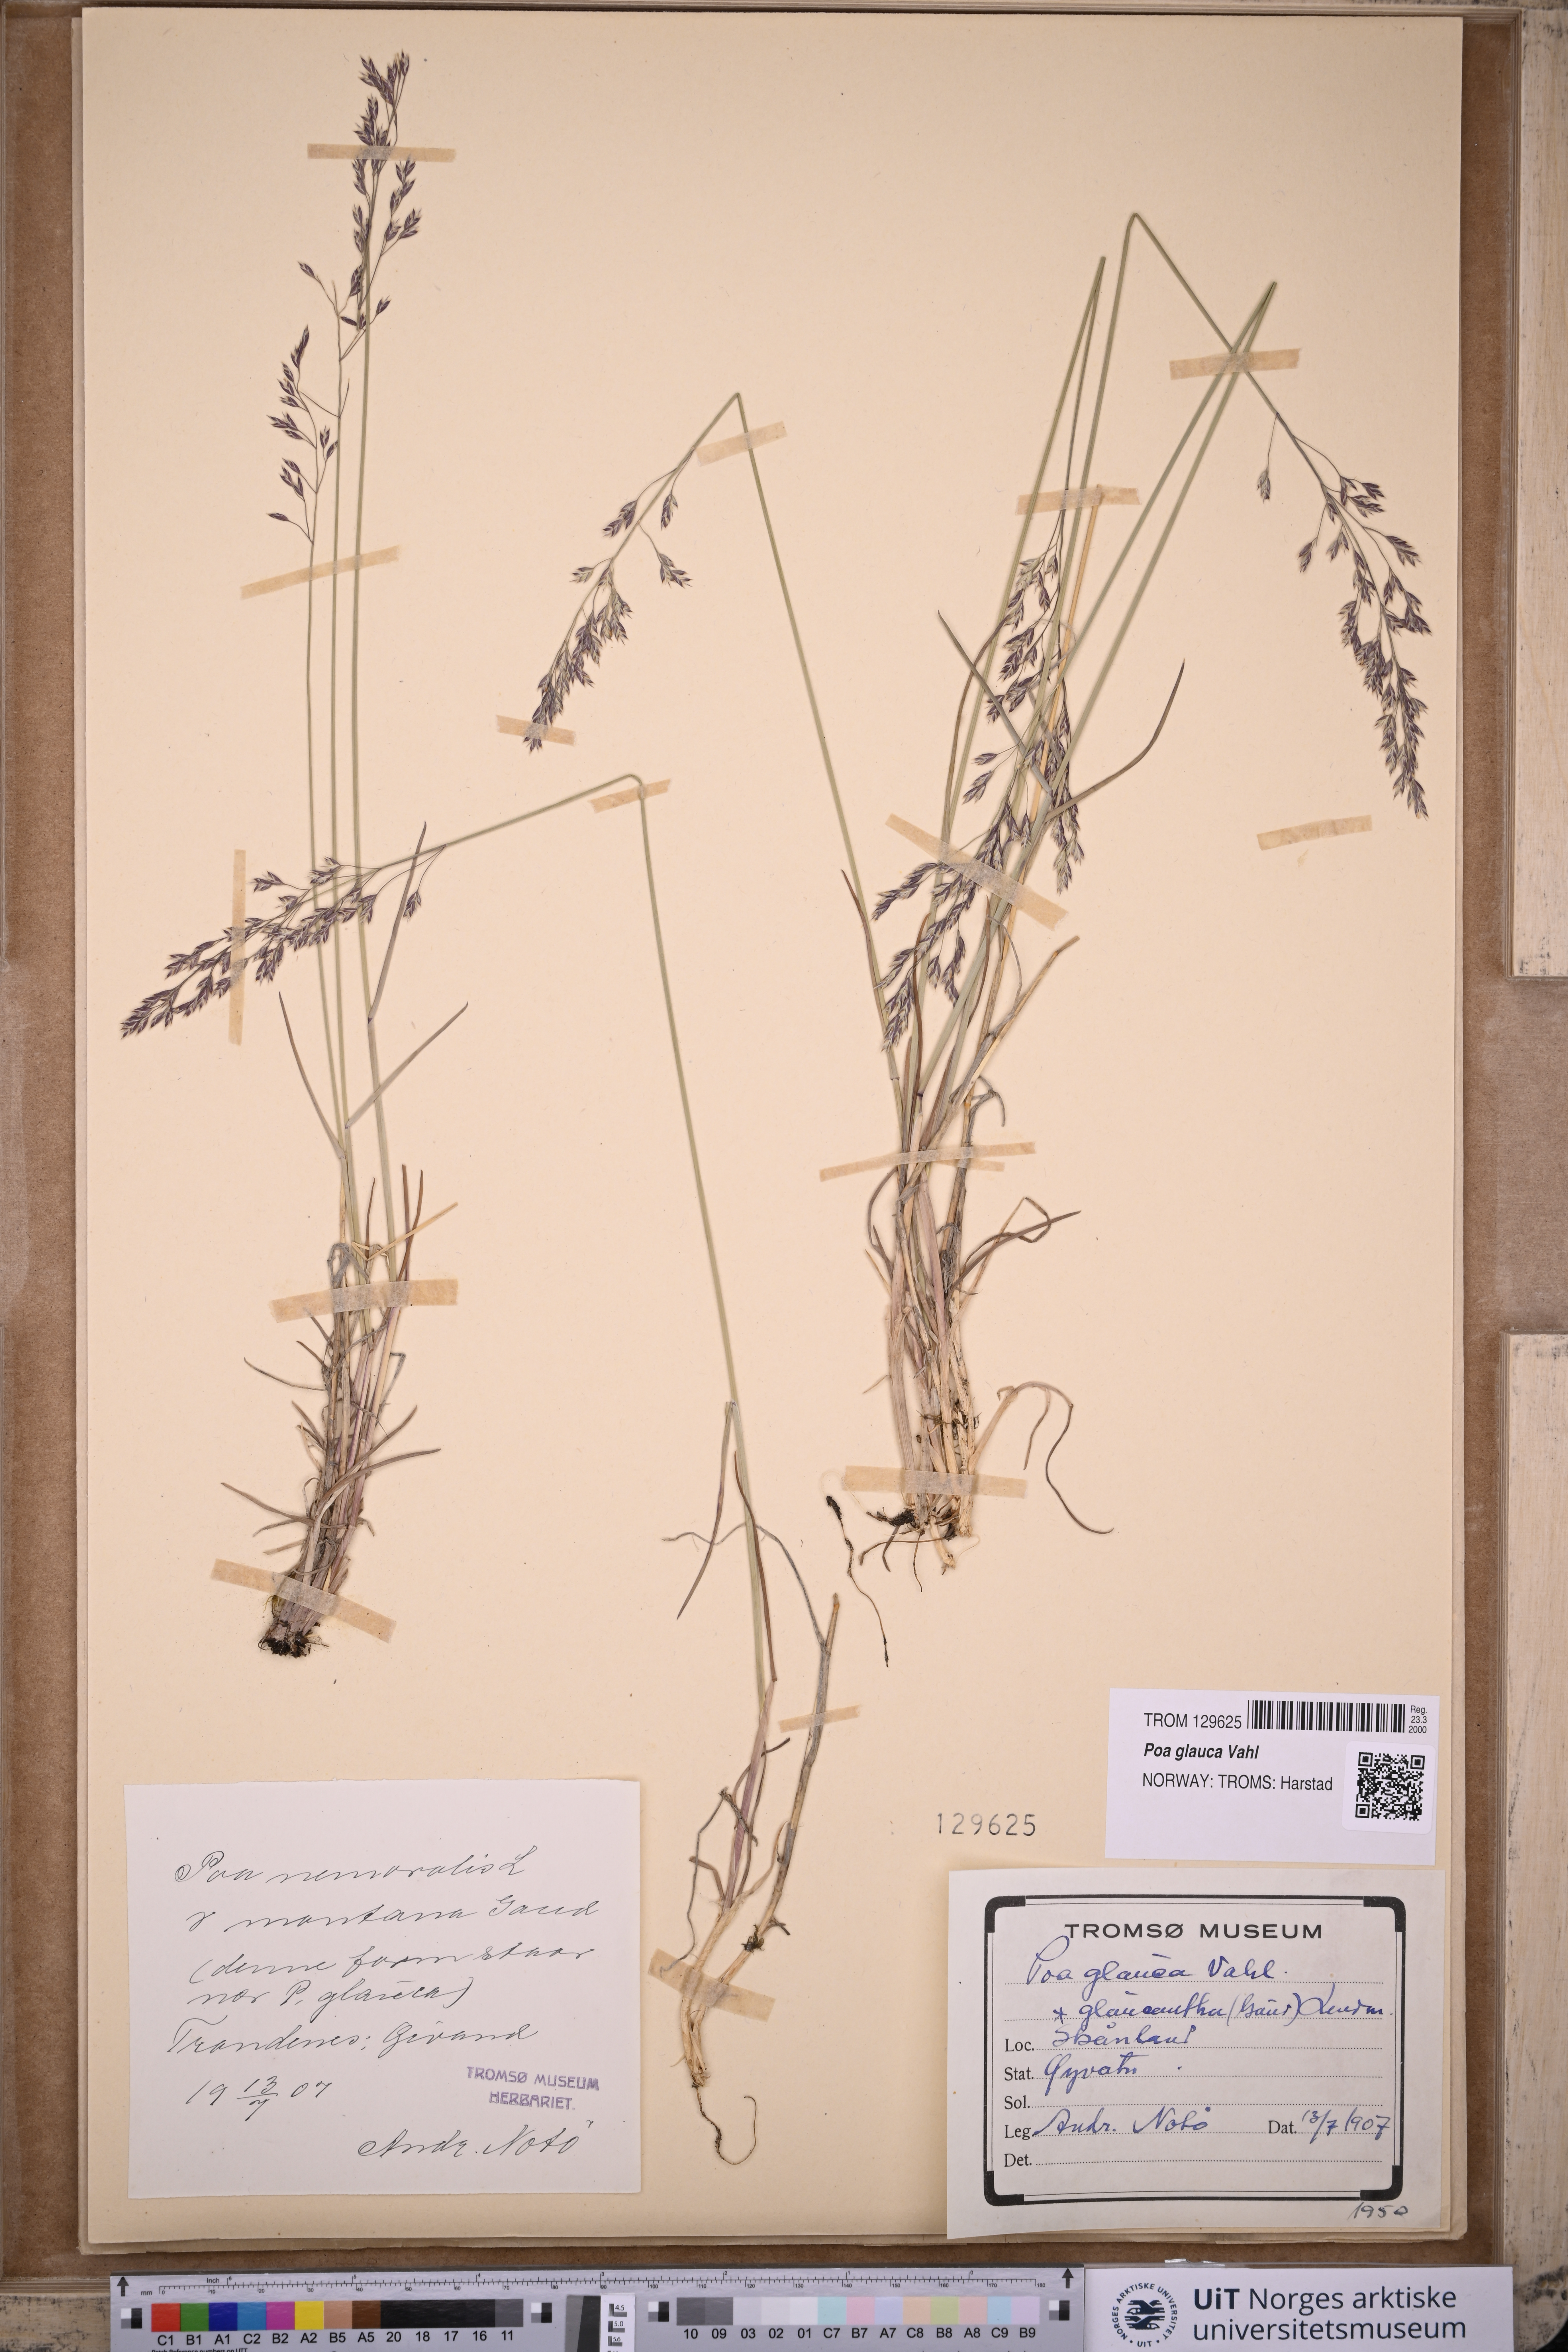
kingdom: Plantae
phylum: Tracheophyta
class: Liliopsida
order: Poales
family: Poaceae
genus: Poa
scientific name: Poa glauca
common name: Glaucous bluegrass
